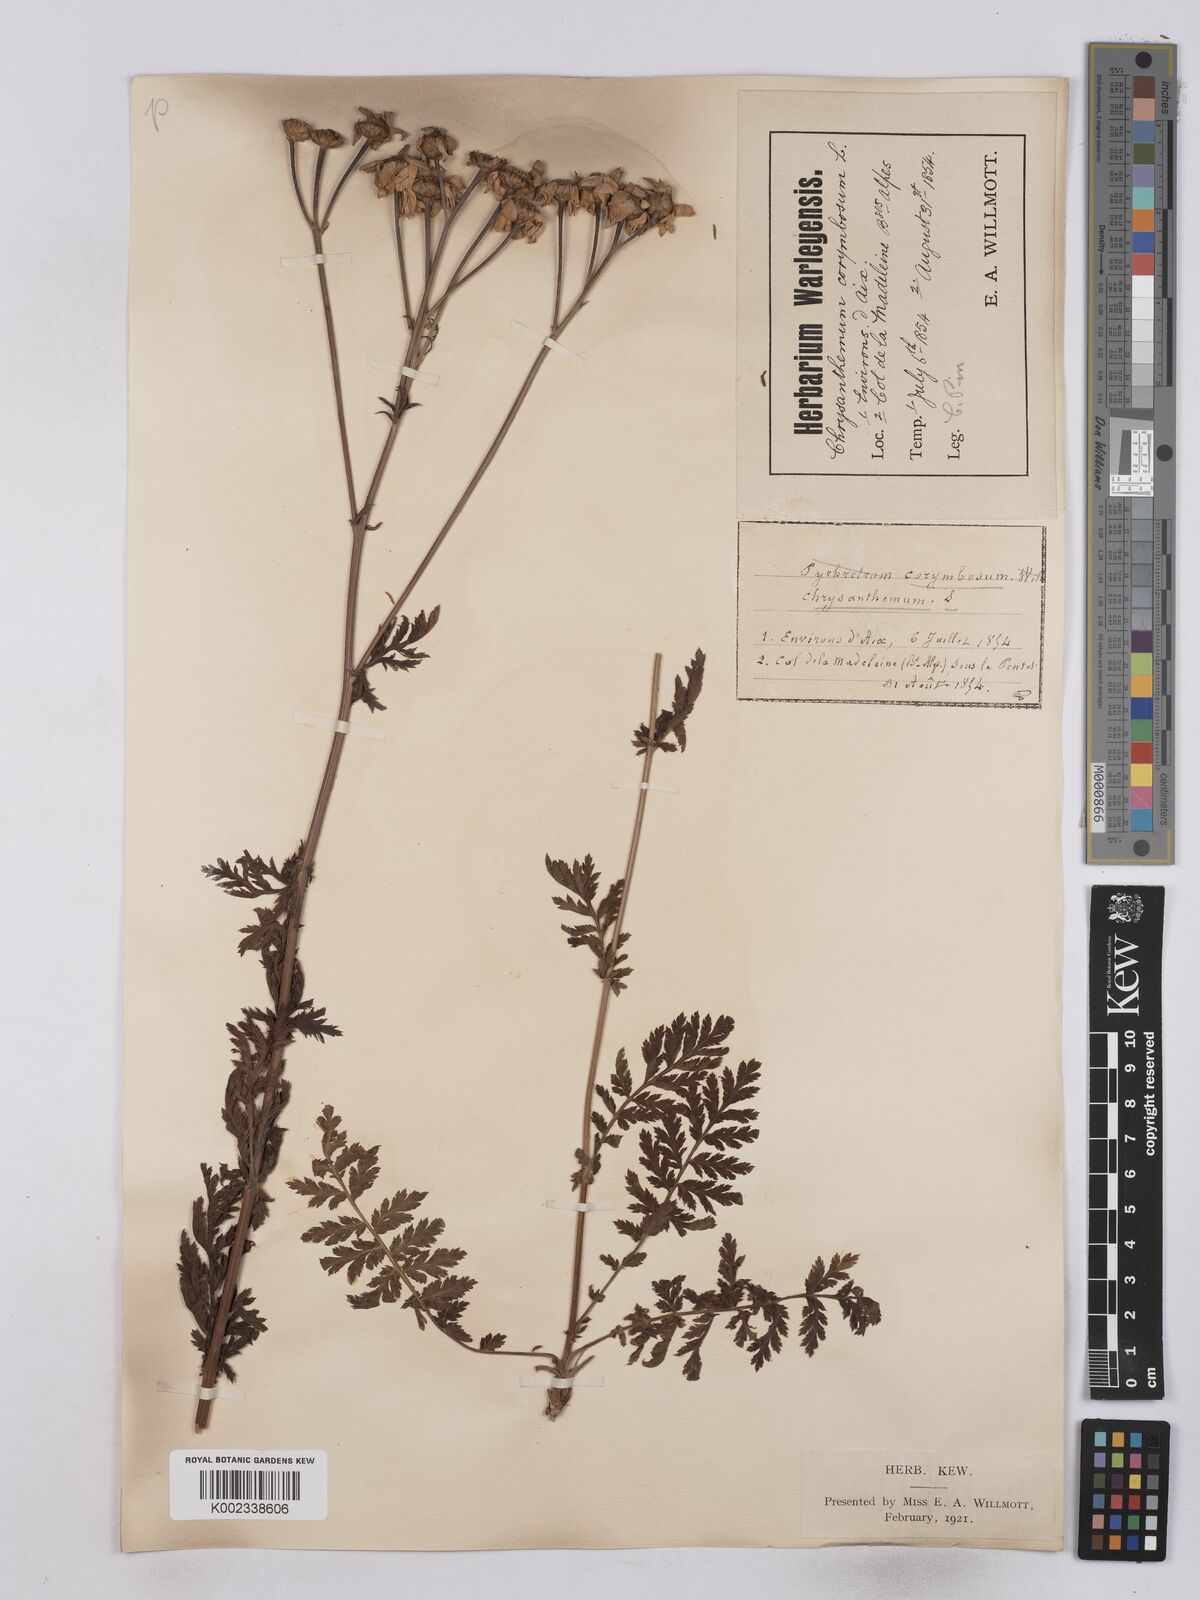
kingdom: Plantae
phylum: Tracheophyta
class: Magnoliopsida
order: Asterales
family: Asteraceae
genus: Tanacetum
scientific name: Tanacetum corymbosum
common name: Scentless feverfew
